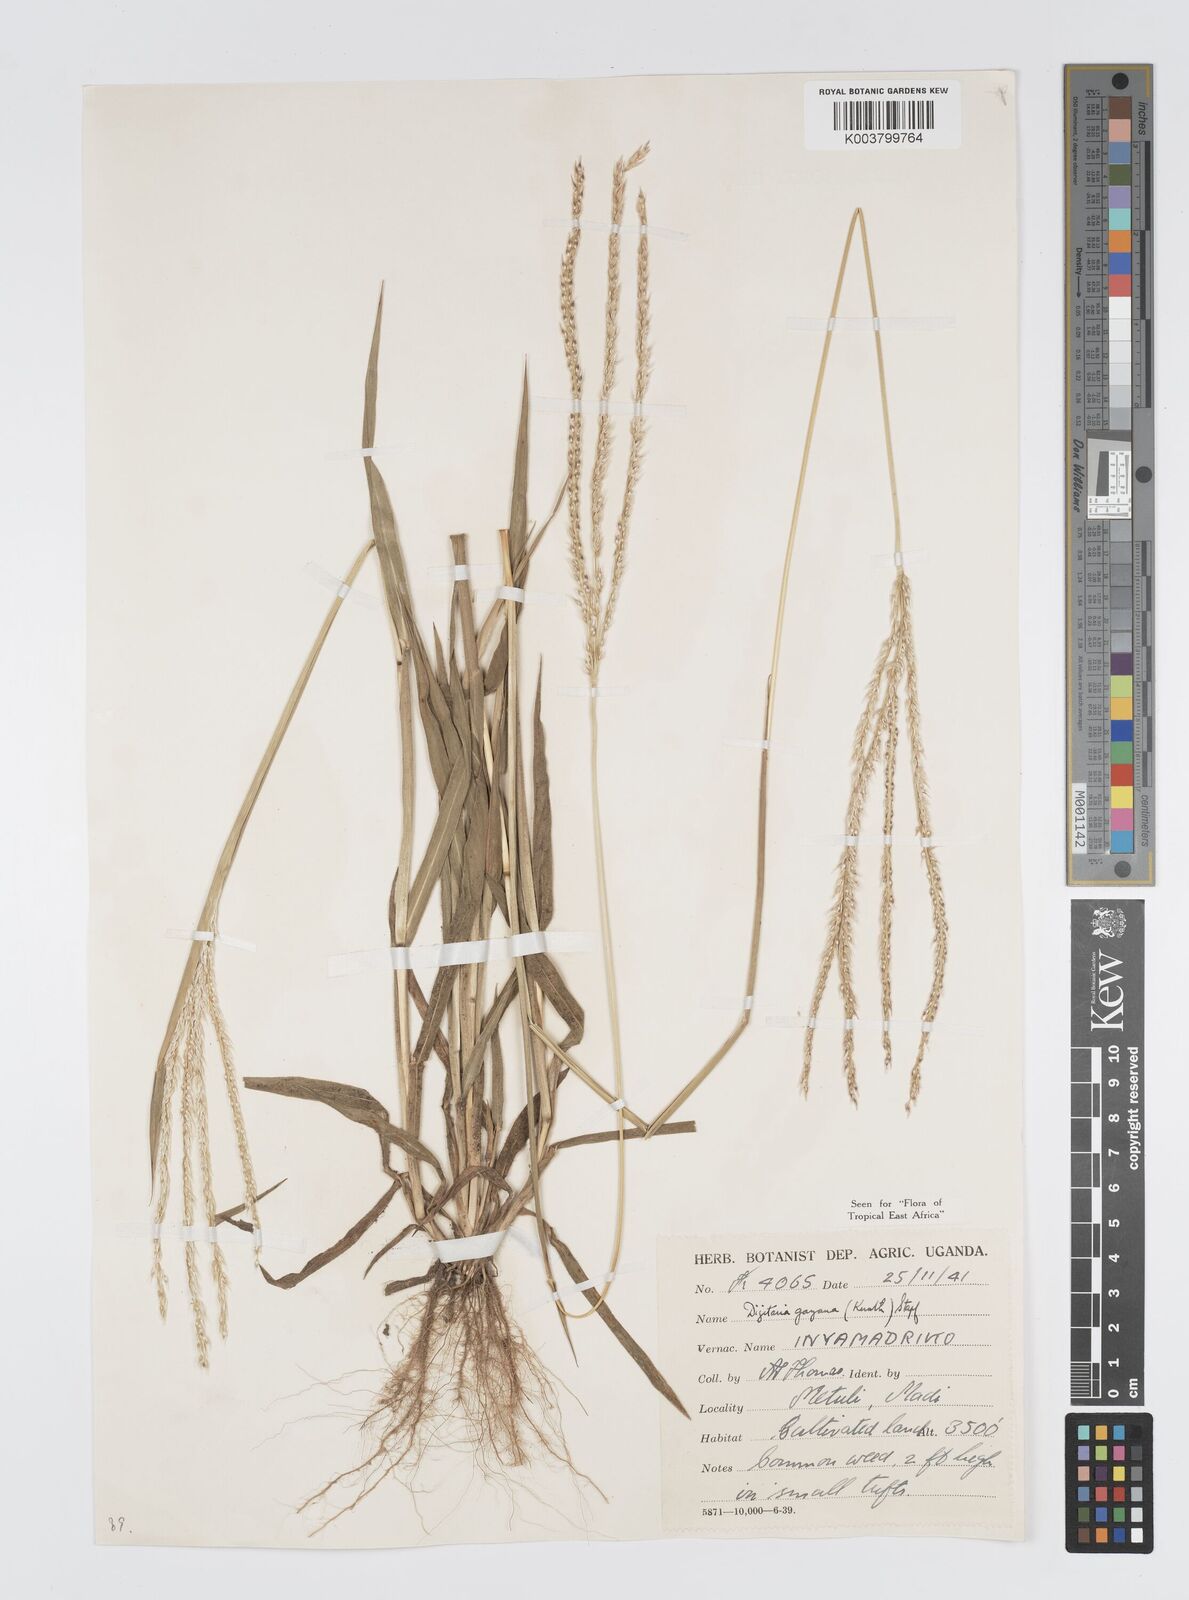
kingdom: Plantae
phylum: Tracheophyta
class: Liliopsida
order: Poales
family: Poaceae
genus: Digitaria
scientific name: Digitaria gayana
